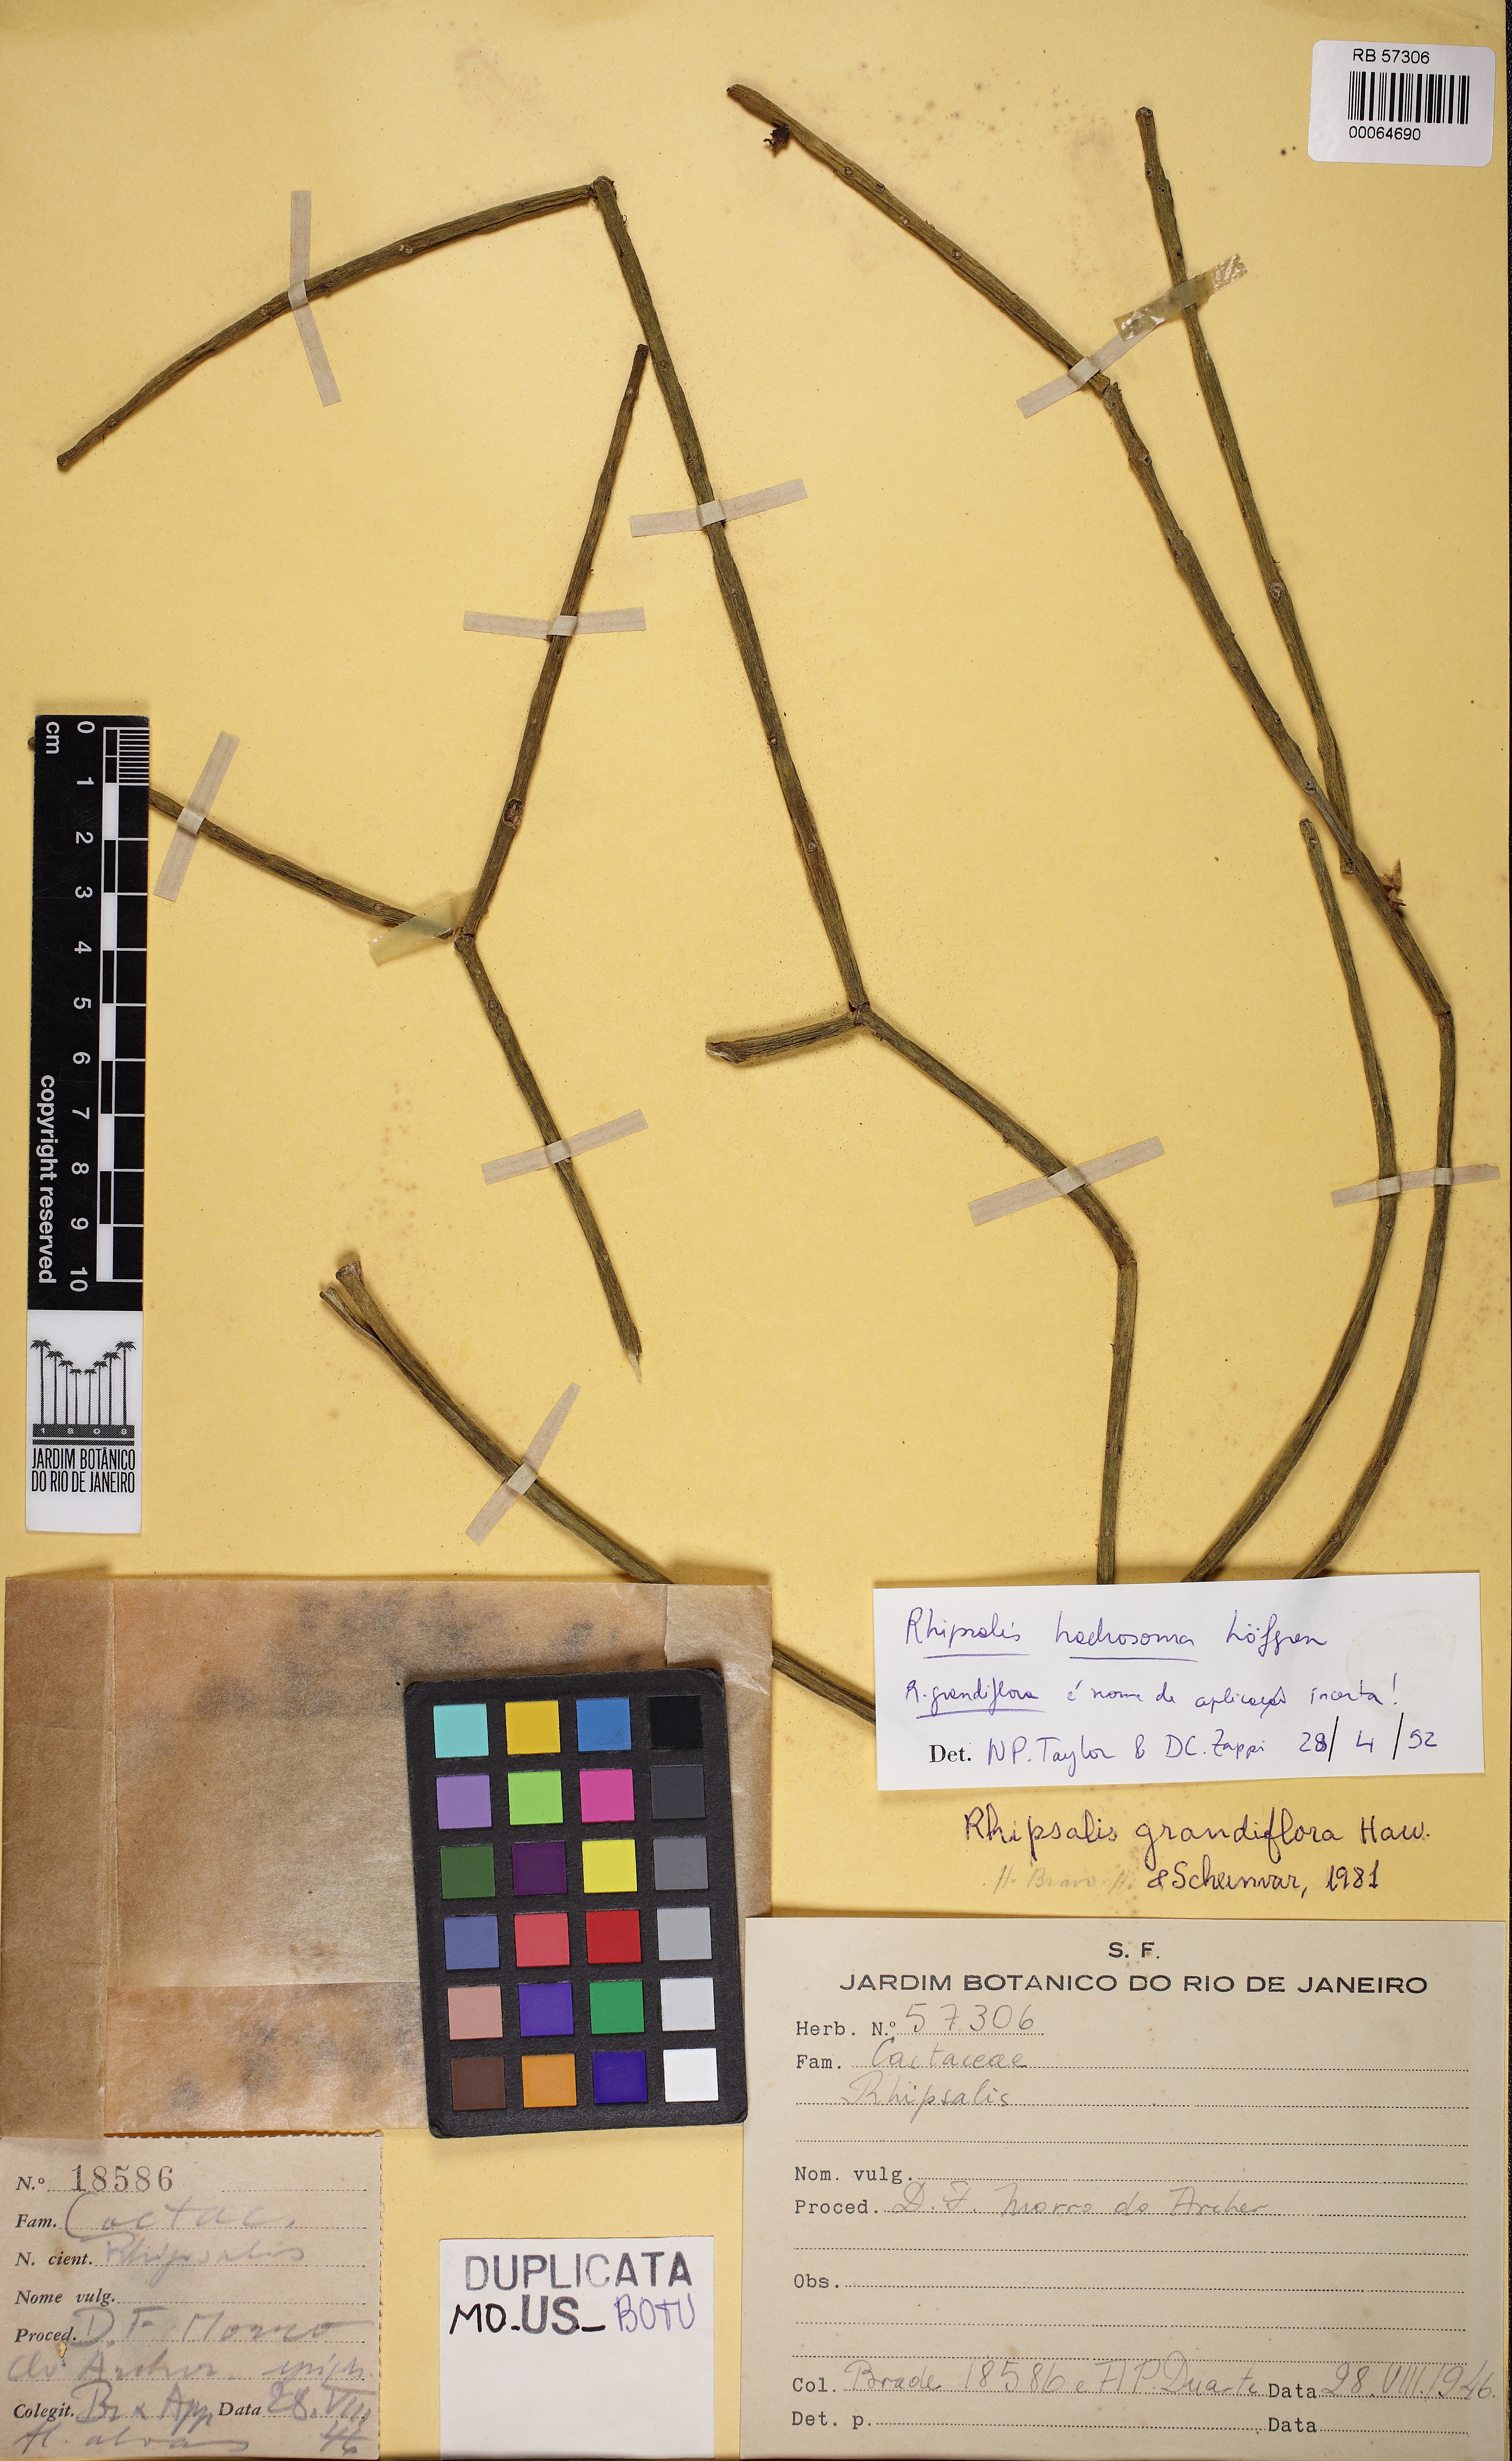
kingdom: Plantae
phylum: Tracheophyta
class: Magnoliopsida
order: Caryophyllales
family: Cactaceae
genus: Rhipsalis
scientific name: Rhipsalis grandiflora
